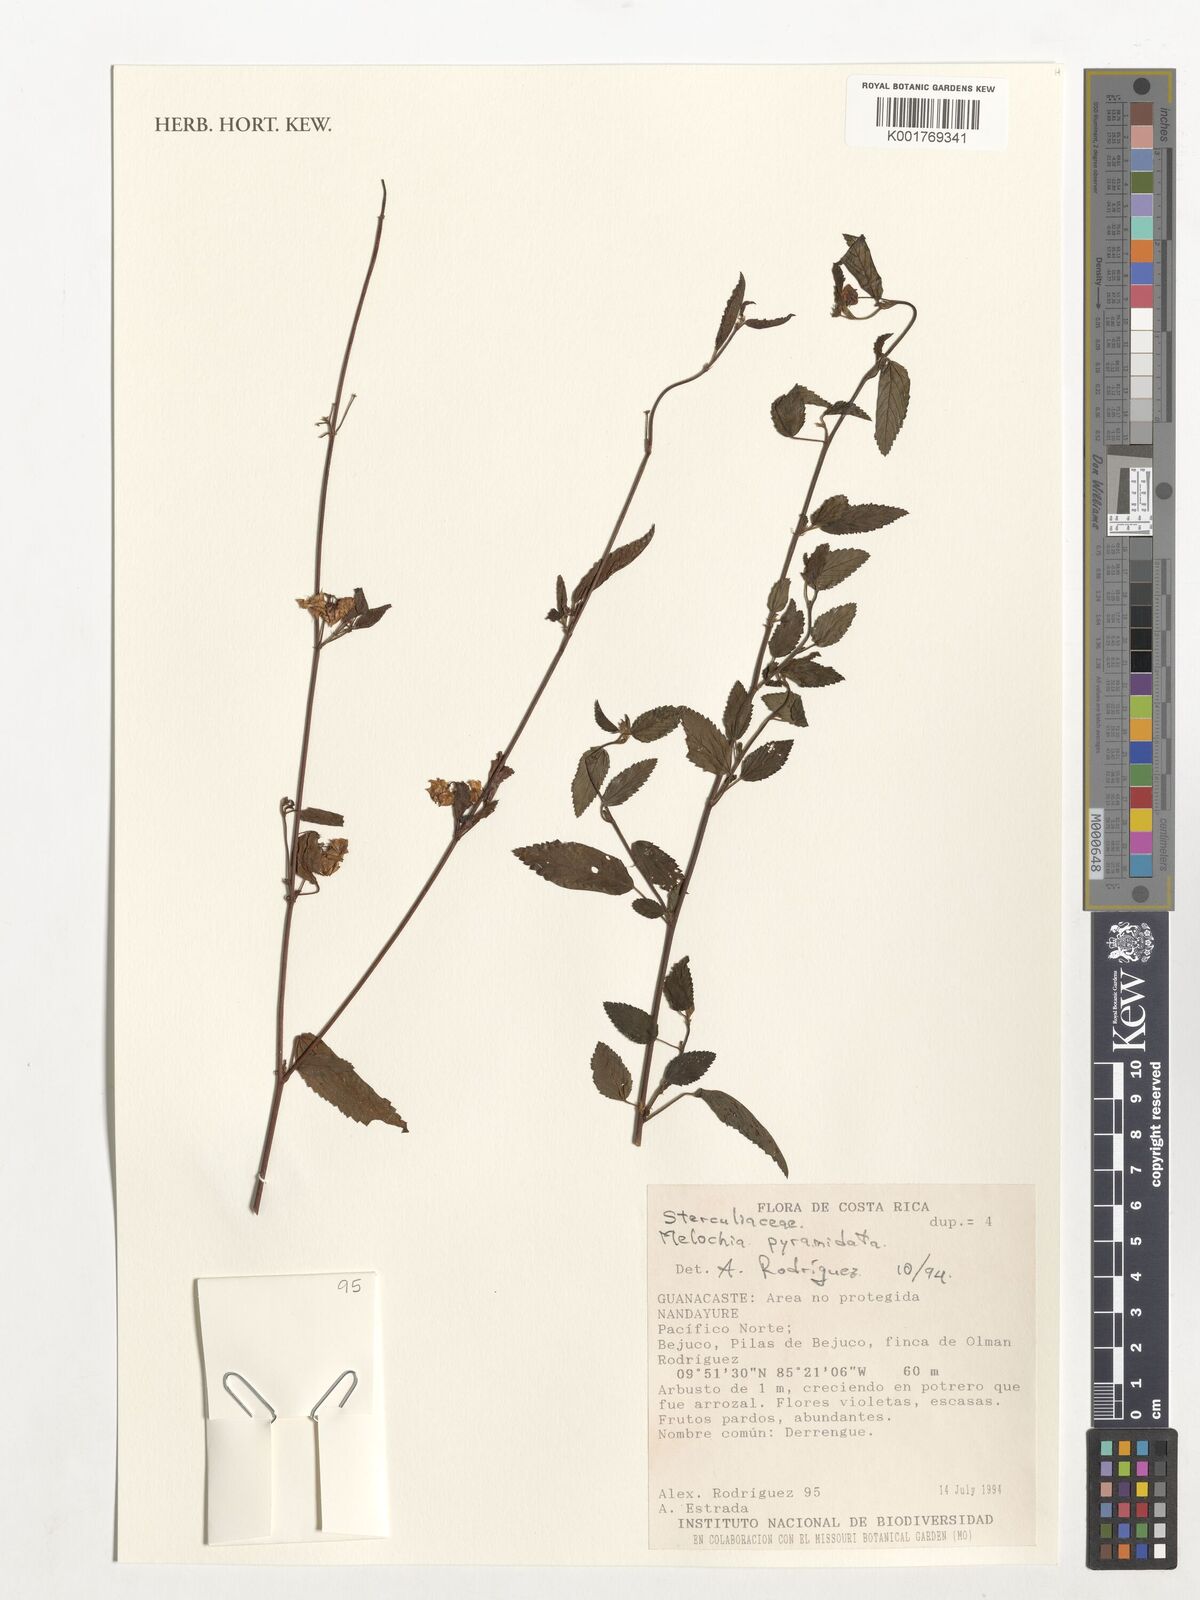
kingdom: Plantae
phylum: Tracheophyta
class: Magnoliopsida
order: Malvales
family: Malvaceae
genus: Melochia
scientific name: Melochia pyramidata
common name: Pyramidflower
